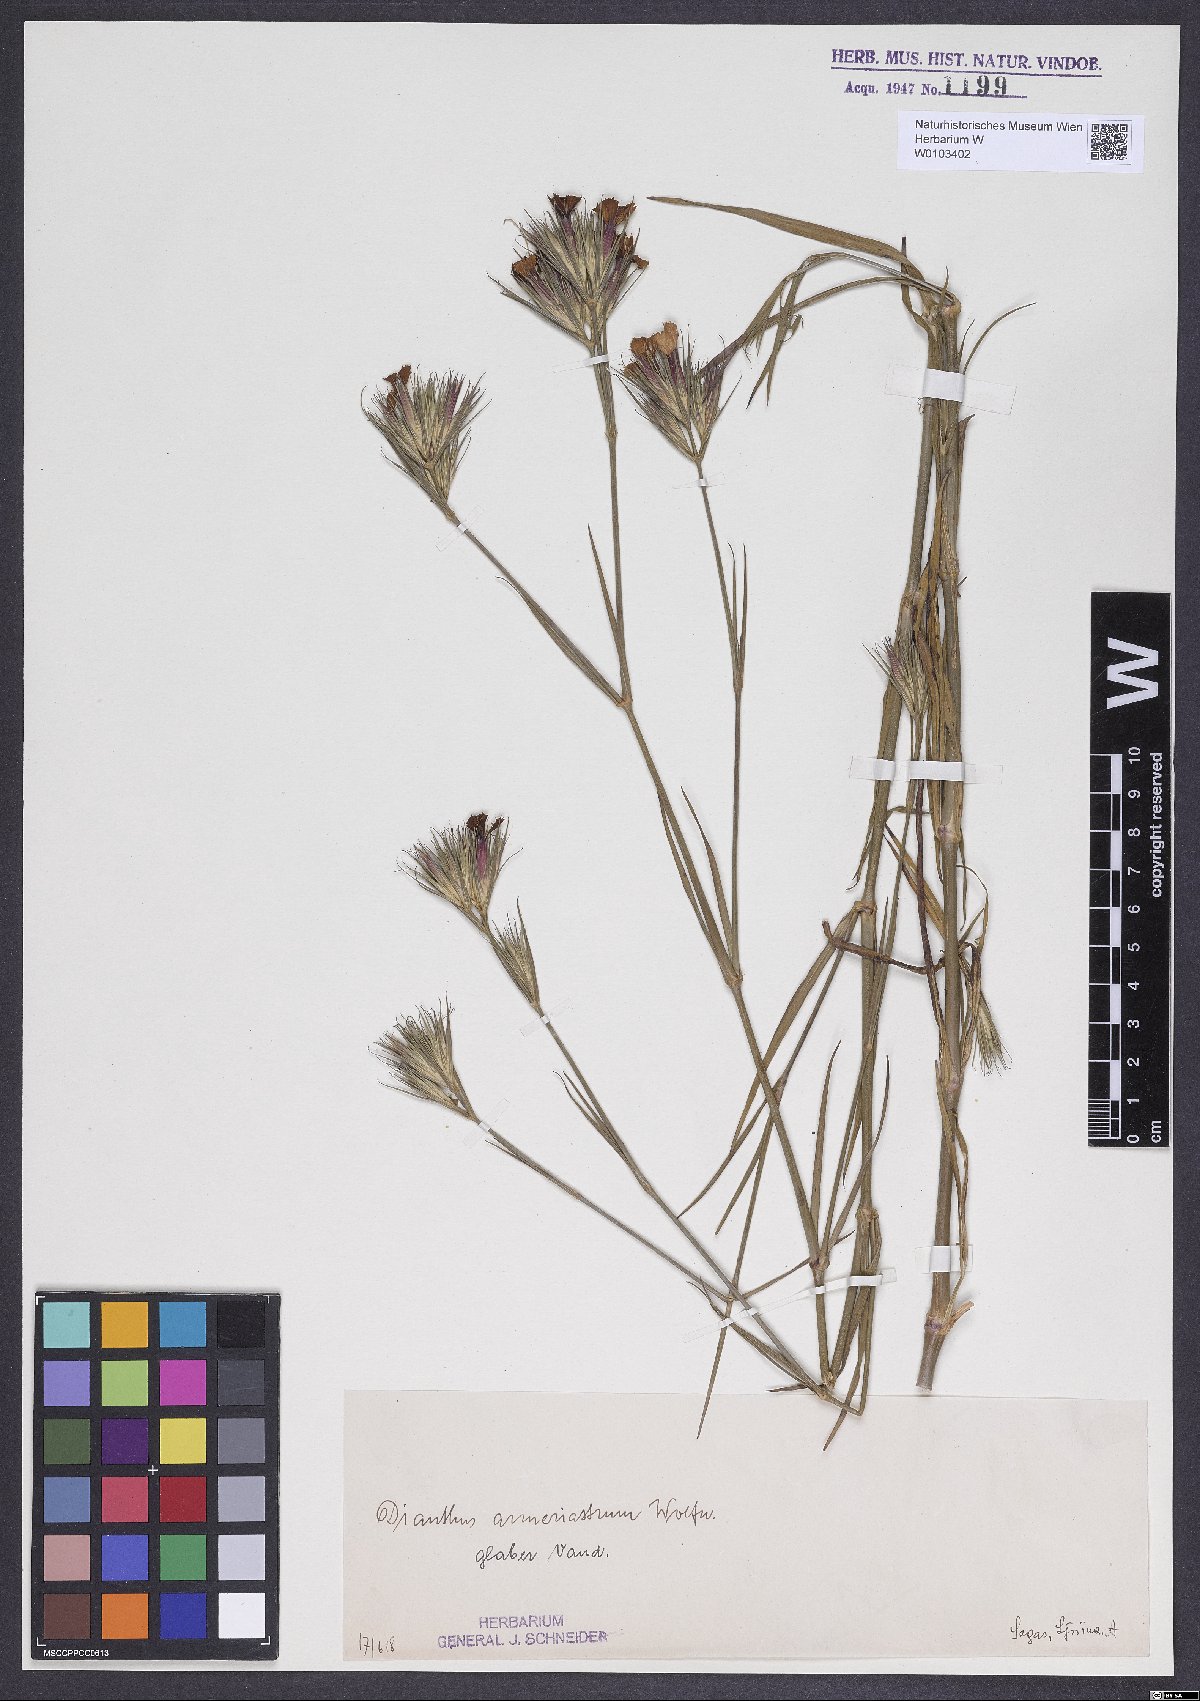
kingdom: Plantae
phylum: Tracheophyta
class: Magnoliopsida
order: Caryophyllales
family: Caryophyllaceae
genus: Dianthus
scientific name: Dianthus corymbosus
